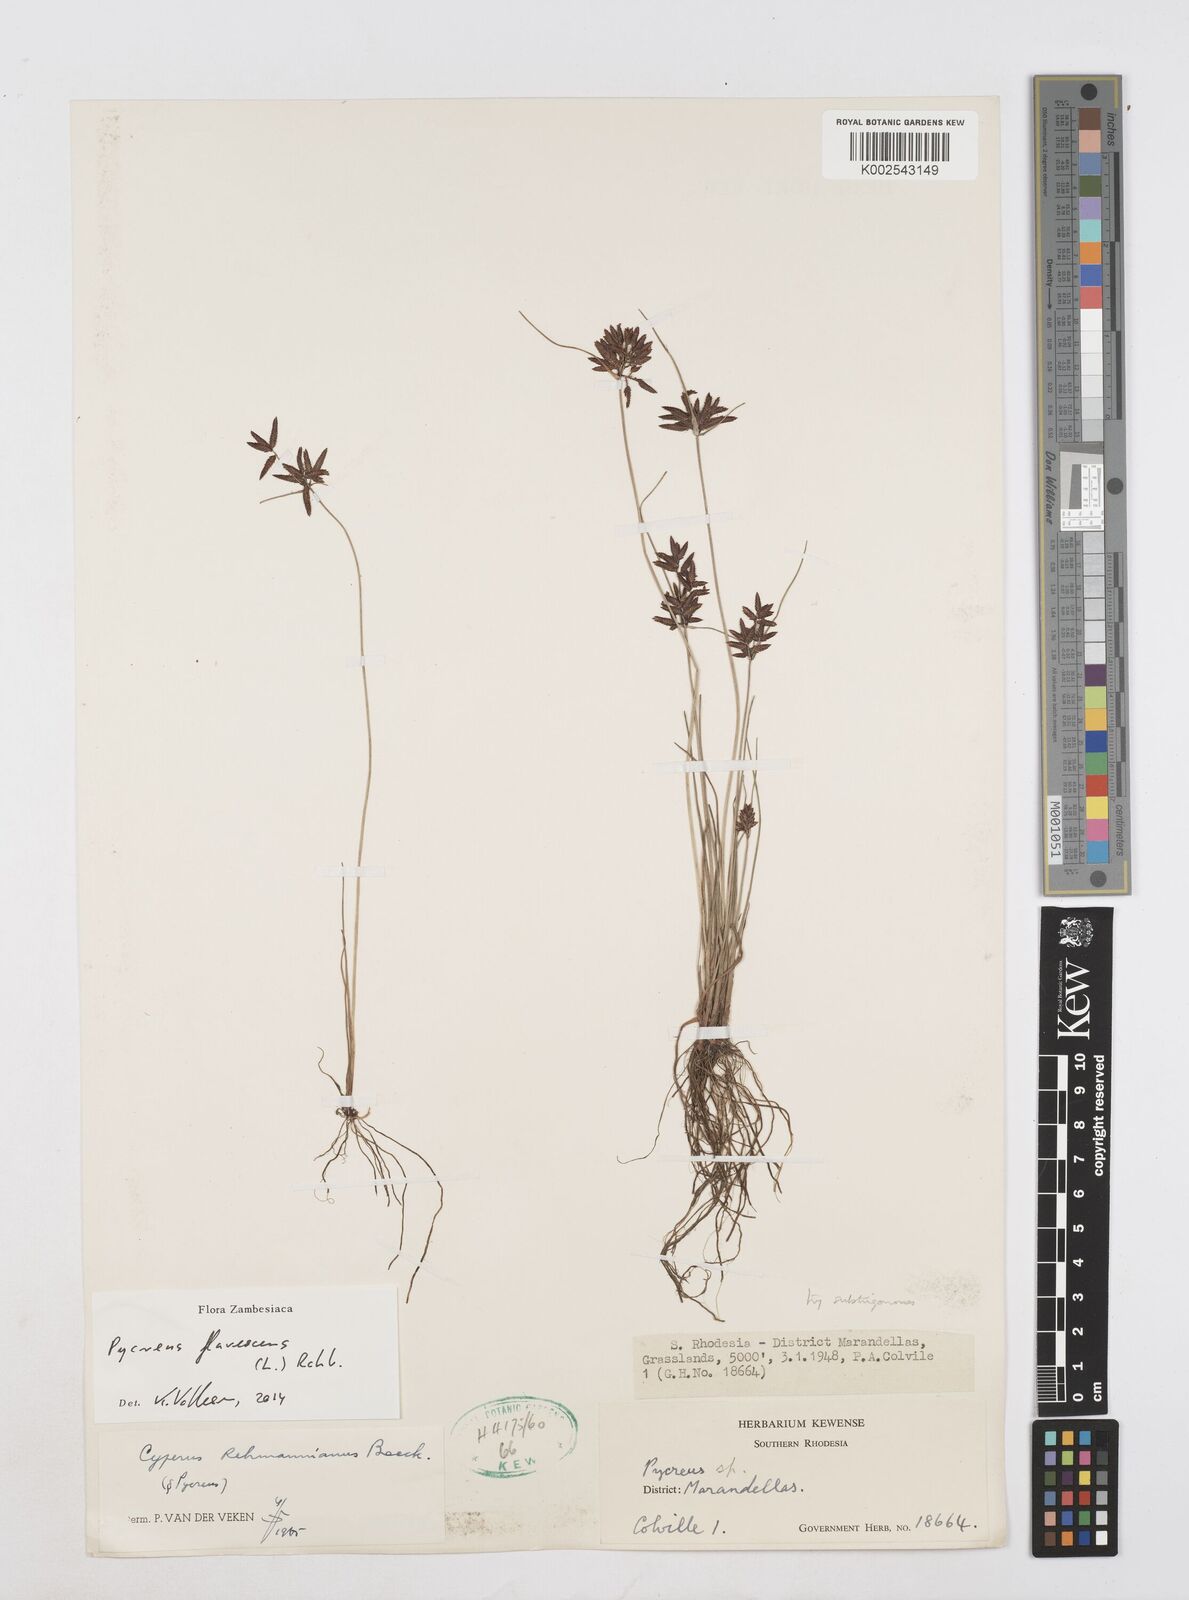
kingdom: Plantae
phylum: Tracheophyta
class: Liliopsida
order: Poales
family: Cyperaceae
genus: Cyperus
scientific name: Cyperus flavescens
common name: Yellow galingale
